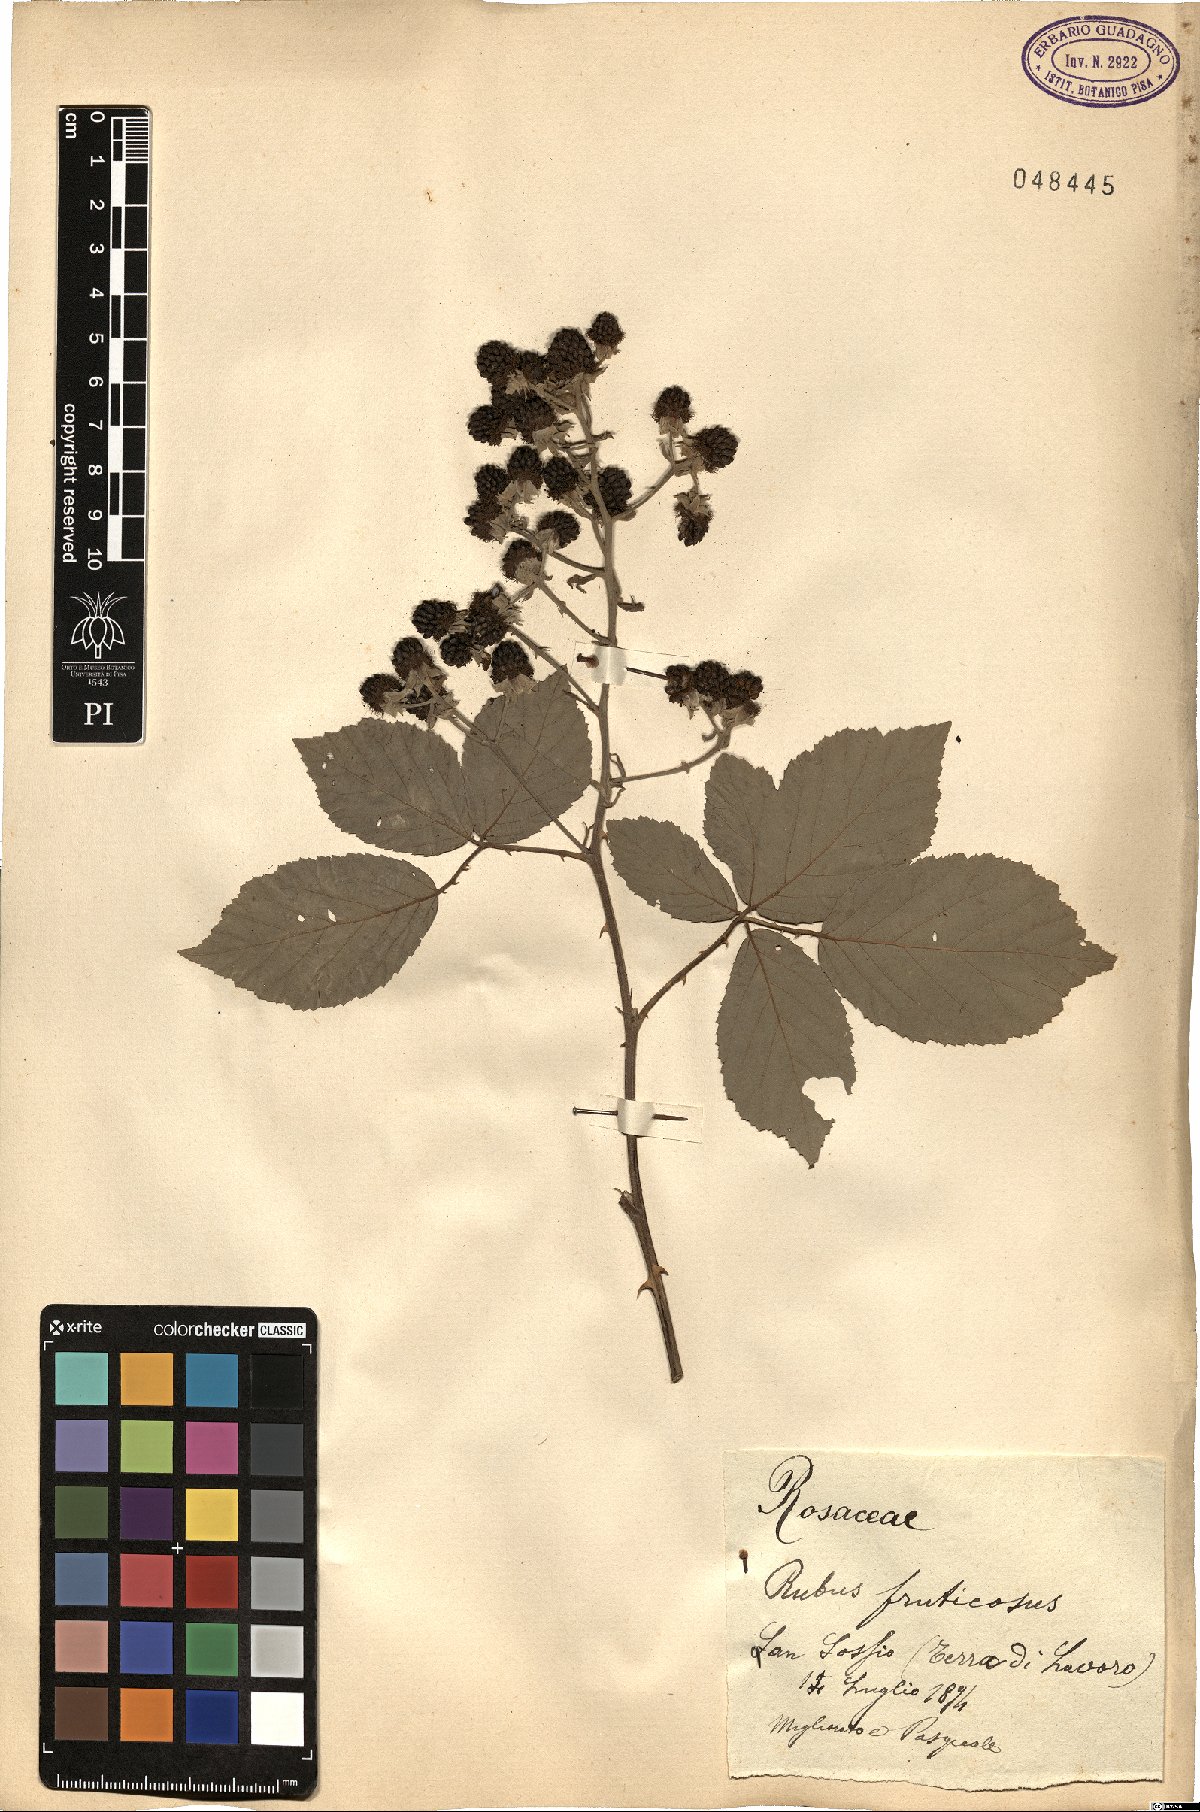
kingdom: Plantae
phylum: Tracheophyta
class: Magnoliopsida
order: Rosales
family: Rosaceae
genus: Rubus
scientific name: Rubus fruticosus
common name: Blackberry, bramble
